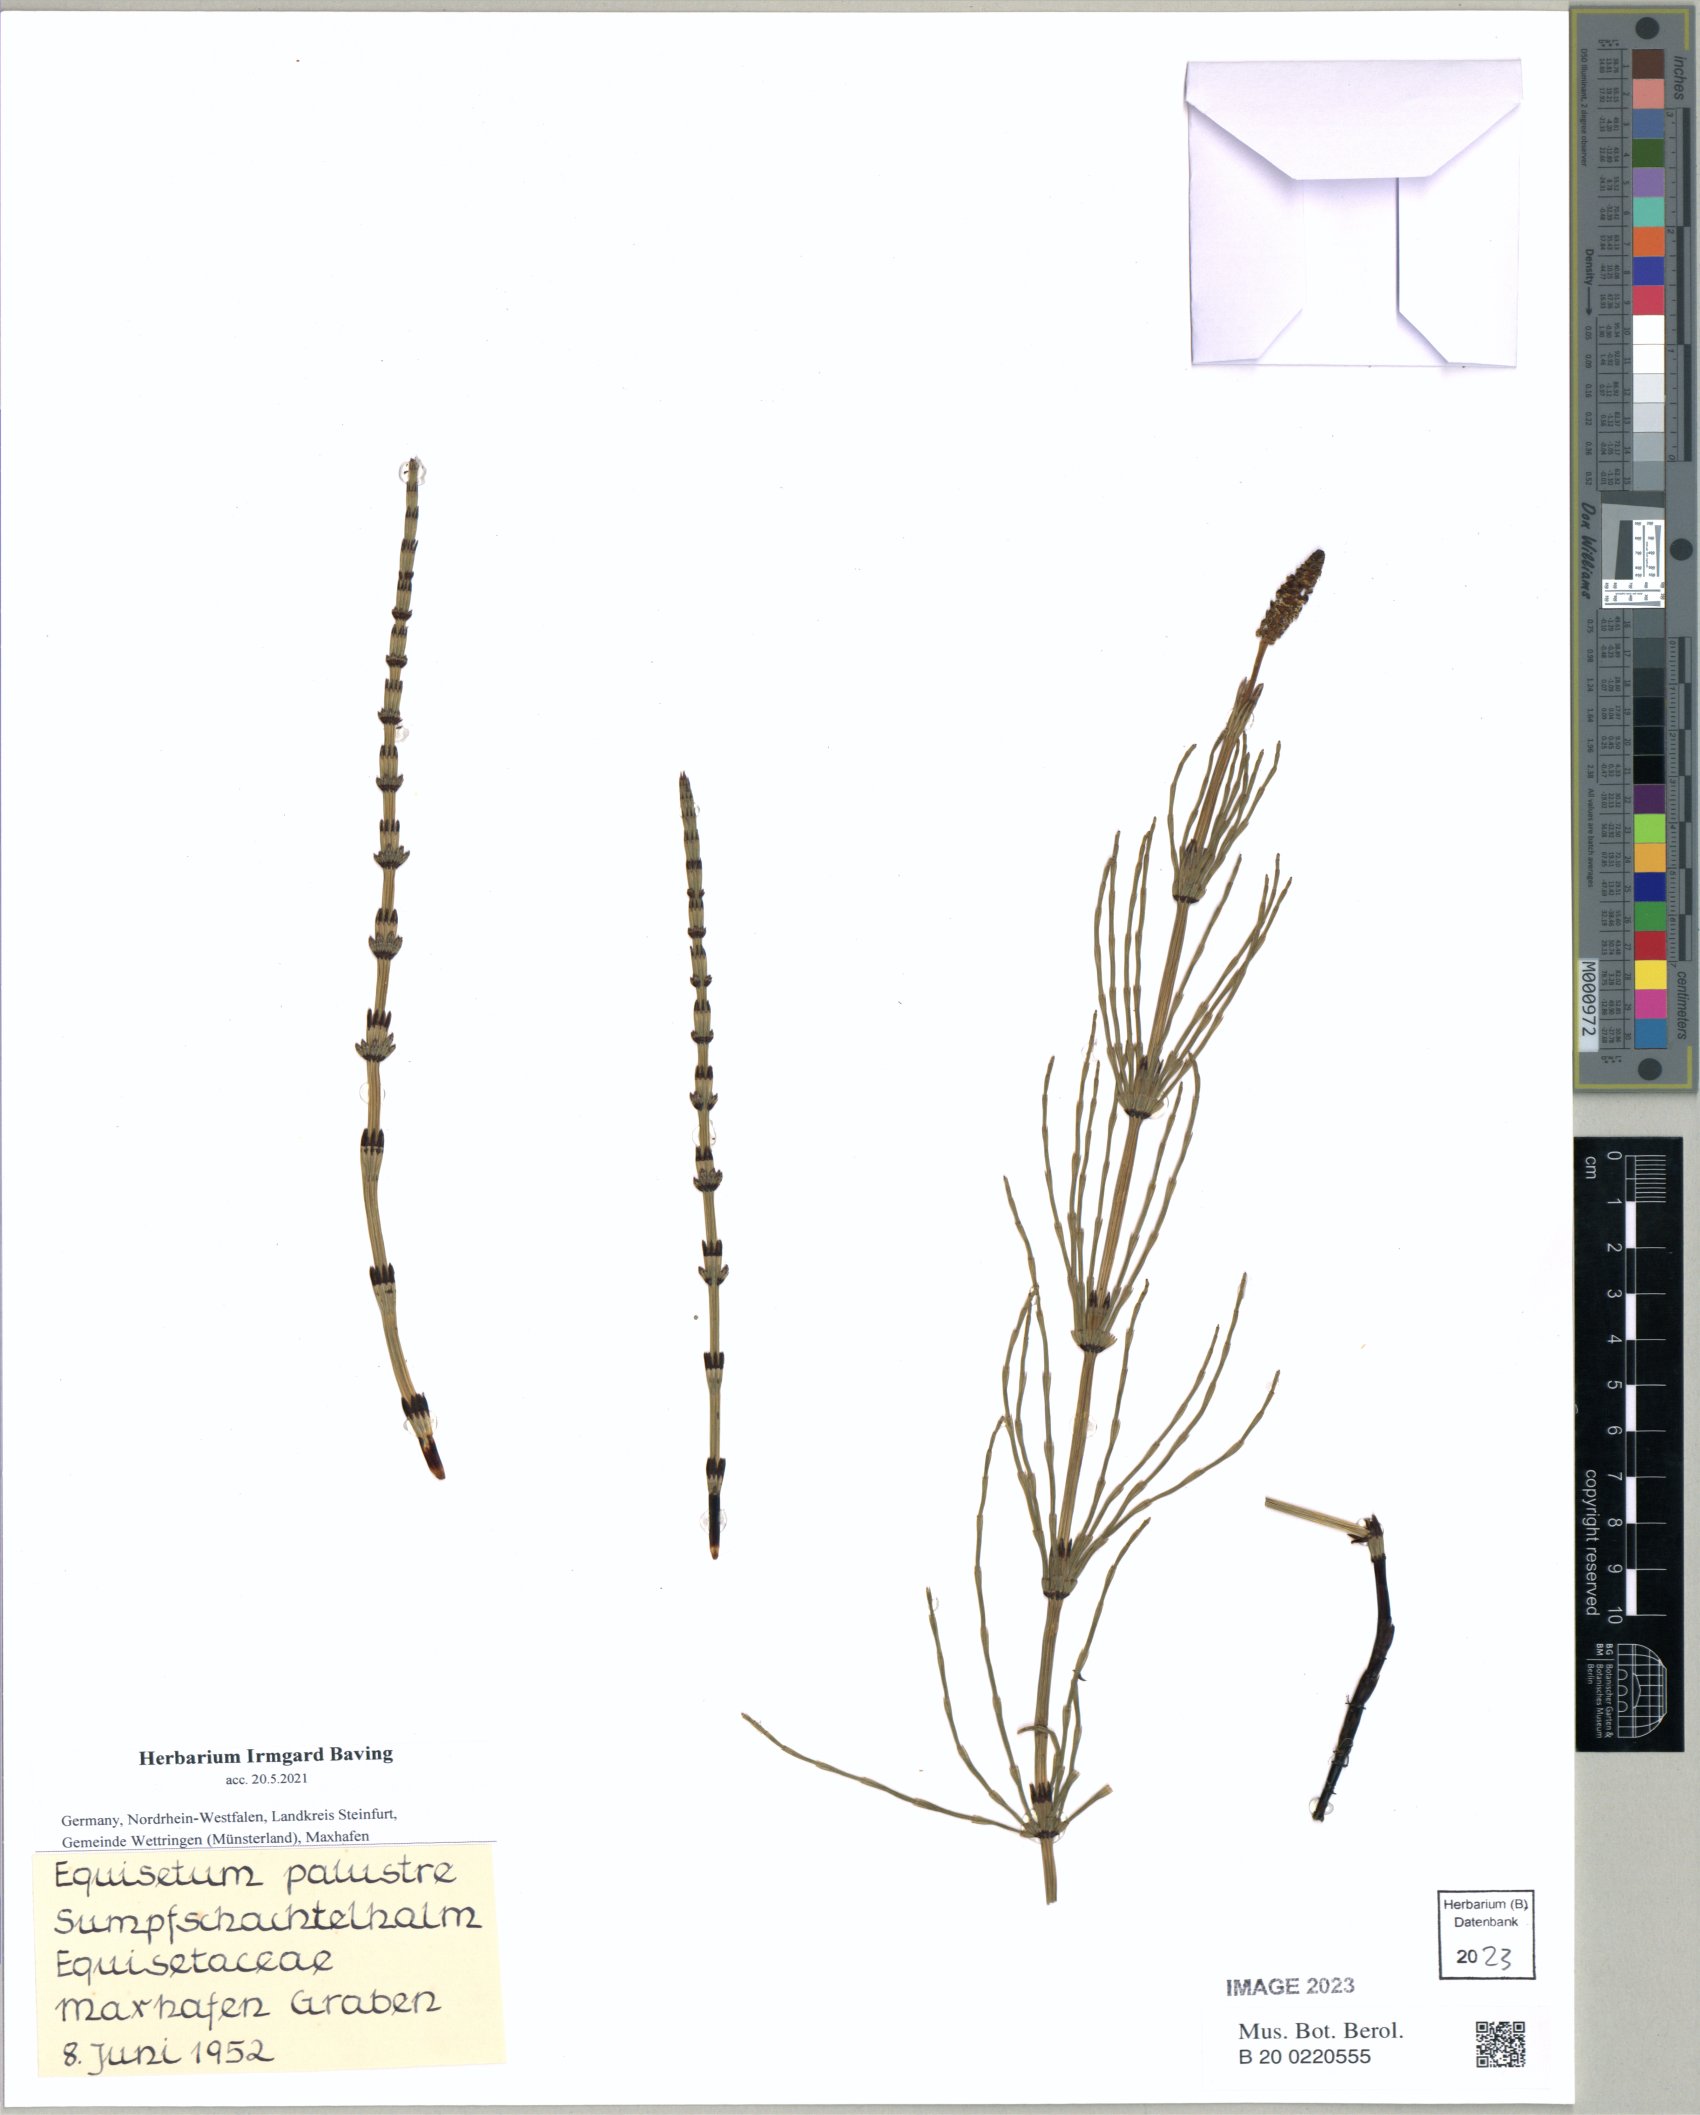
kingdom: Plantae
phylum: Tracheophyta
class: Polypodiopsida
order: Equisetales
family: Equisetaceae
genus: Equisetum
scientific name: Equisetum palustre
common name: Marsh horsetail
